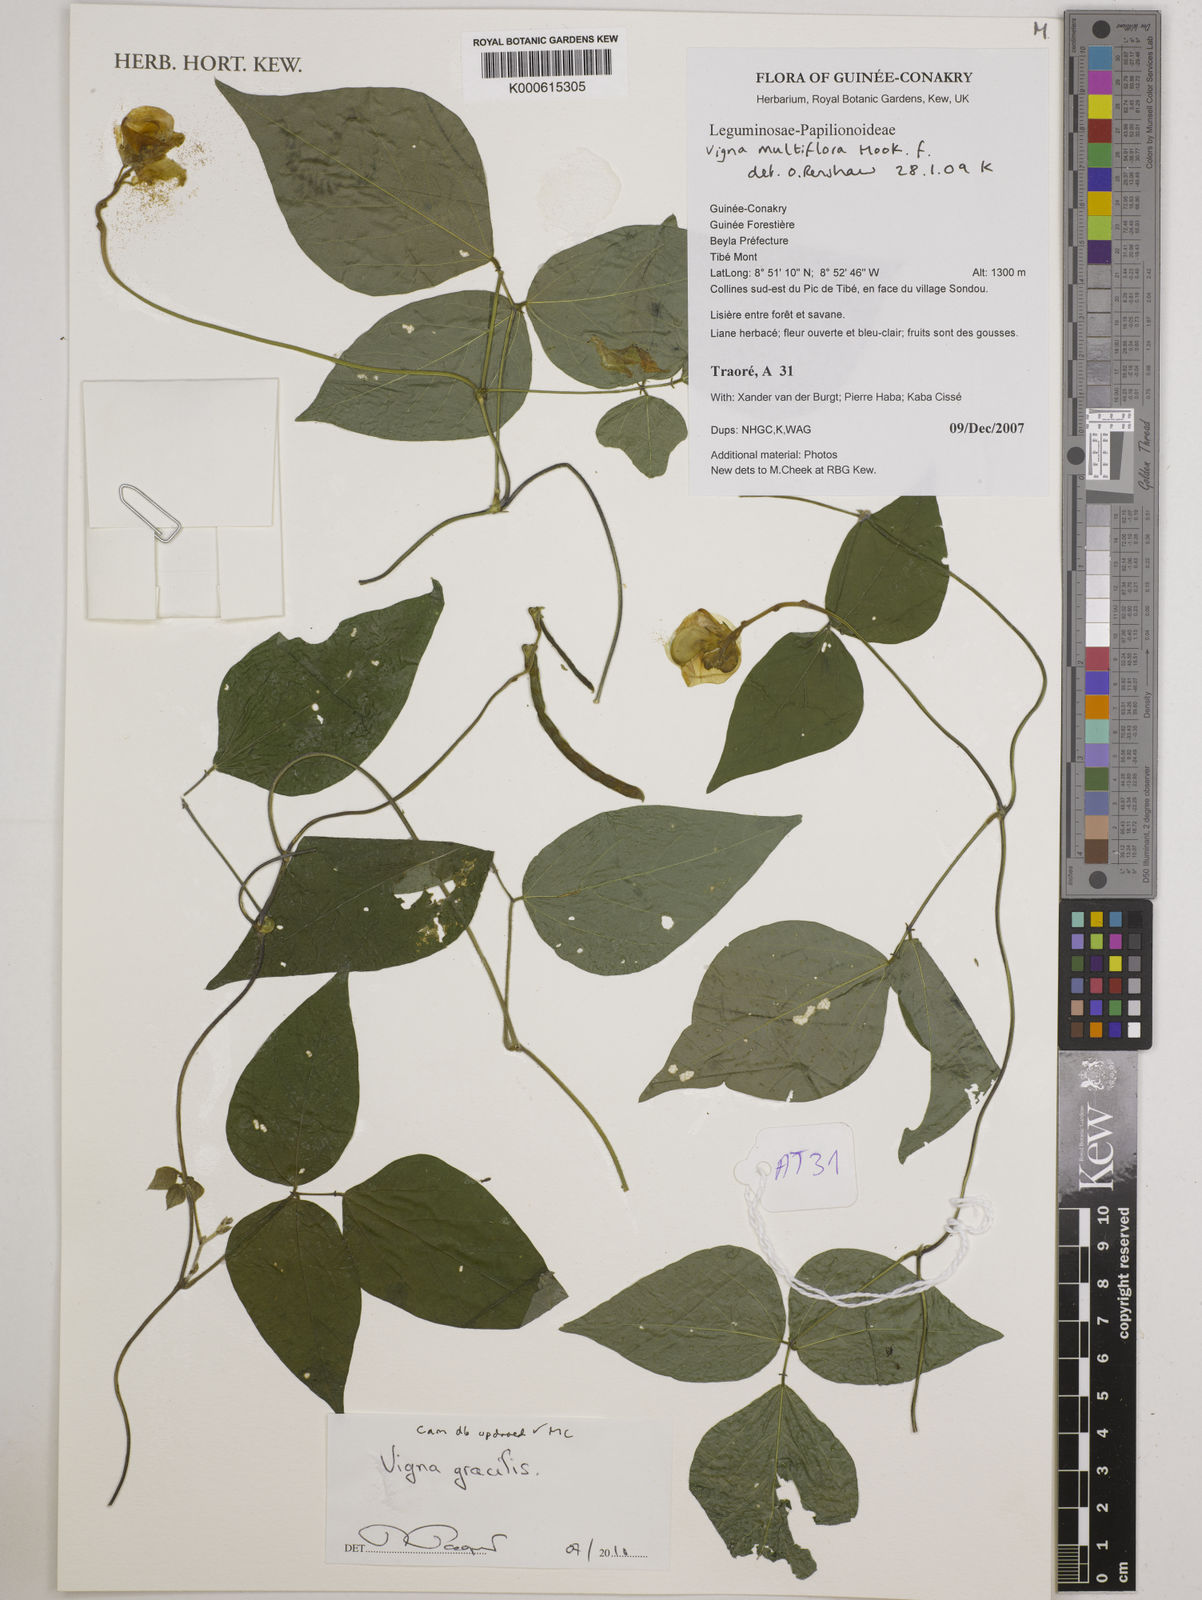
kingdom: Plantae
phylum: Tracheophyta
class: Magnoliopsida
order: Fabales
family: Fabaceae
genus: Vigna
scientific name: Vigna gracilis
